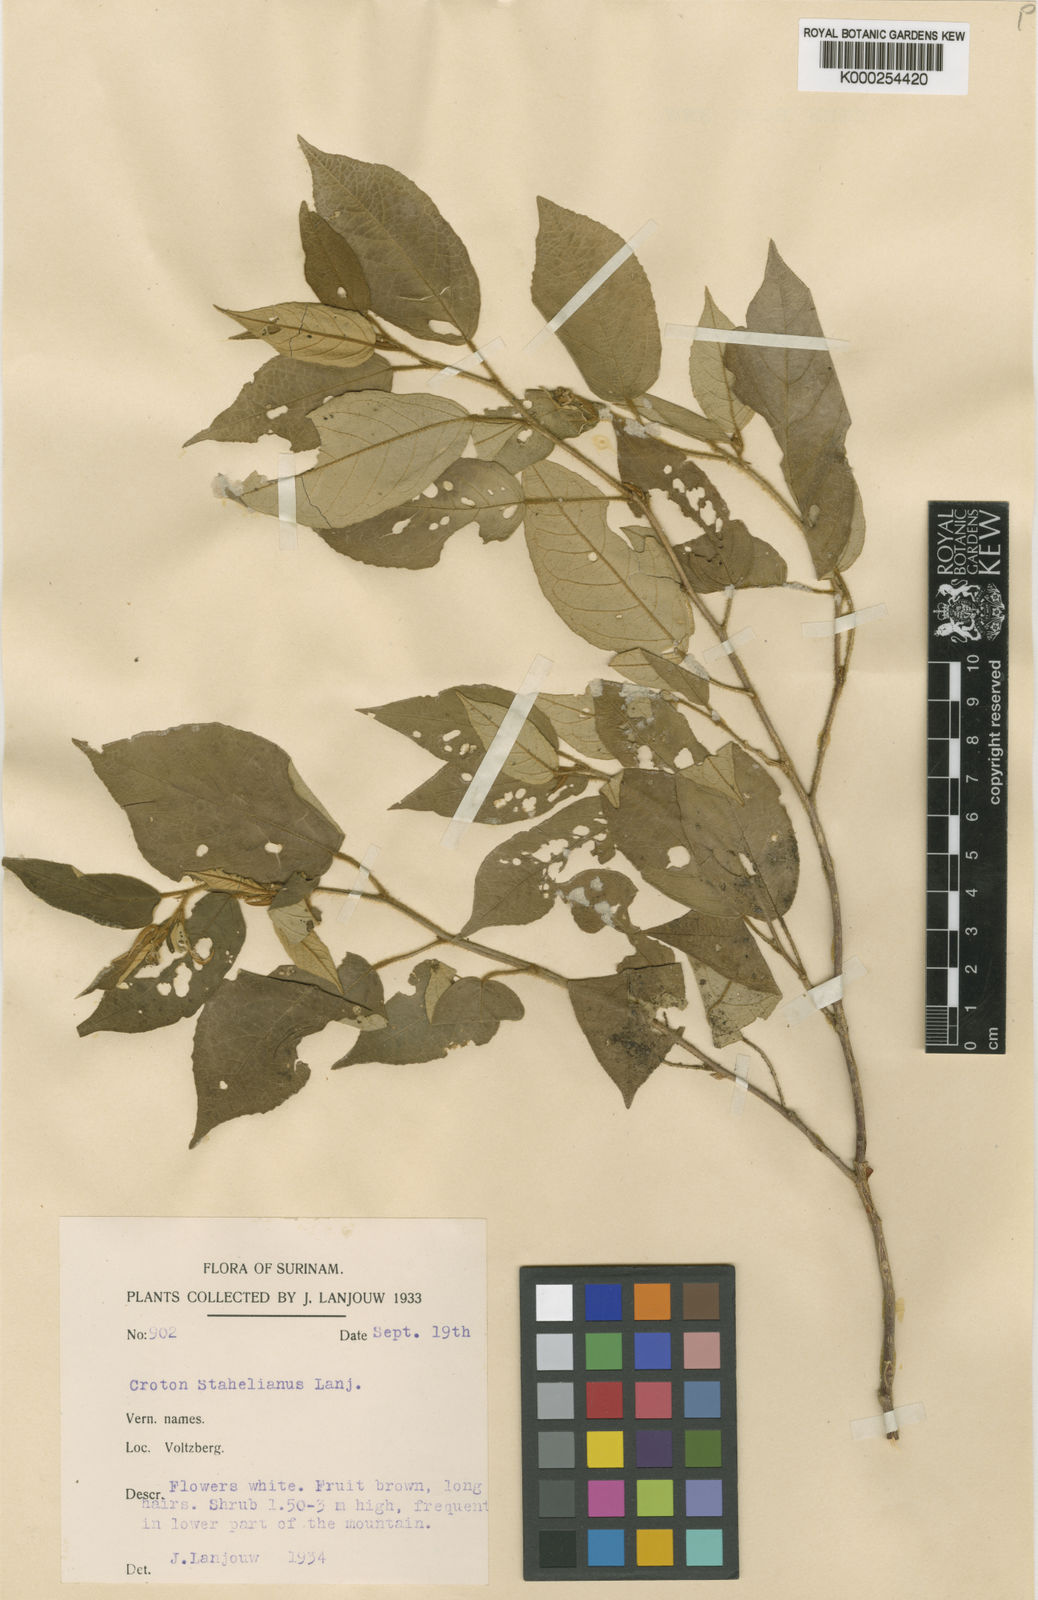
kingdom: Plantae
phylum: Tracheophyta
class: Magnoliopsida
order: Malpighiales
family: Euphorbiaceae
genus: Croton
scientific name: Croton stahelianus
